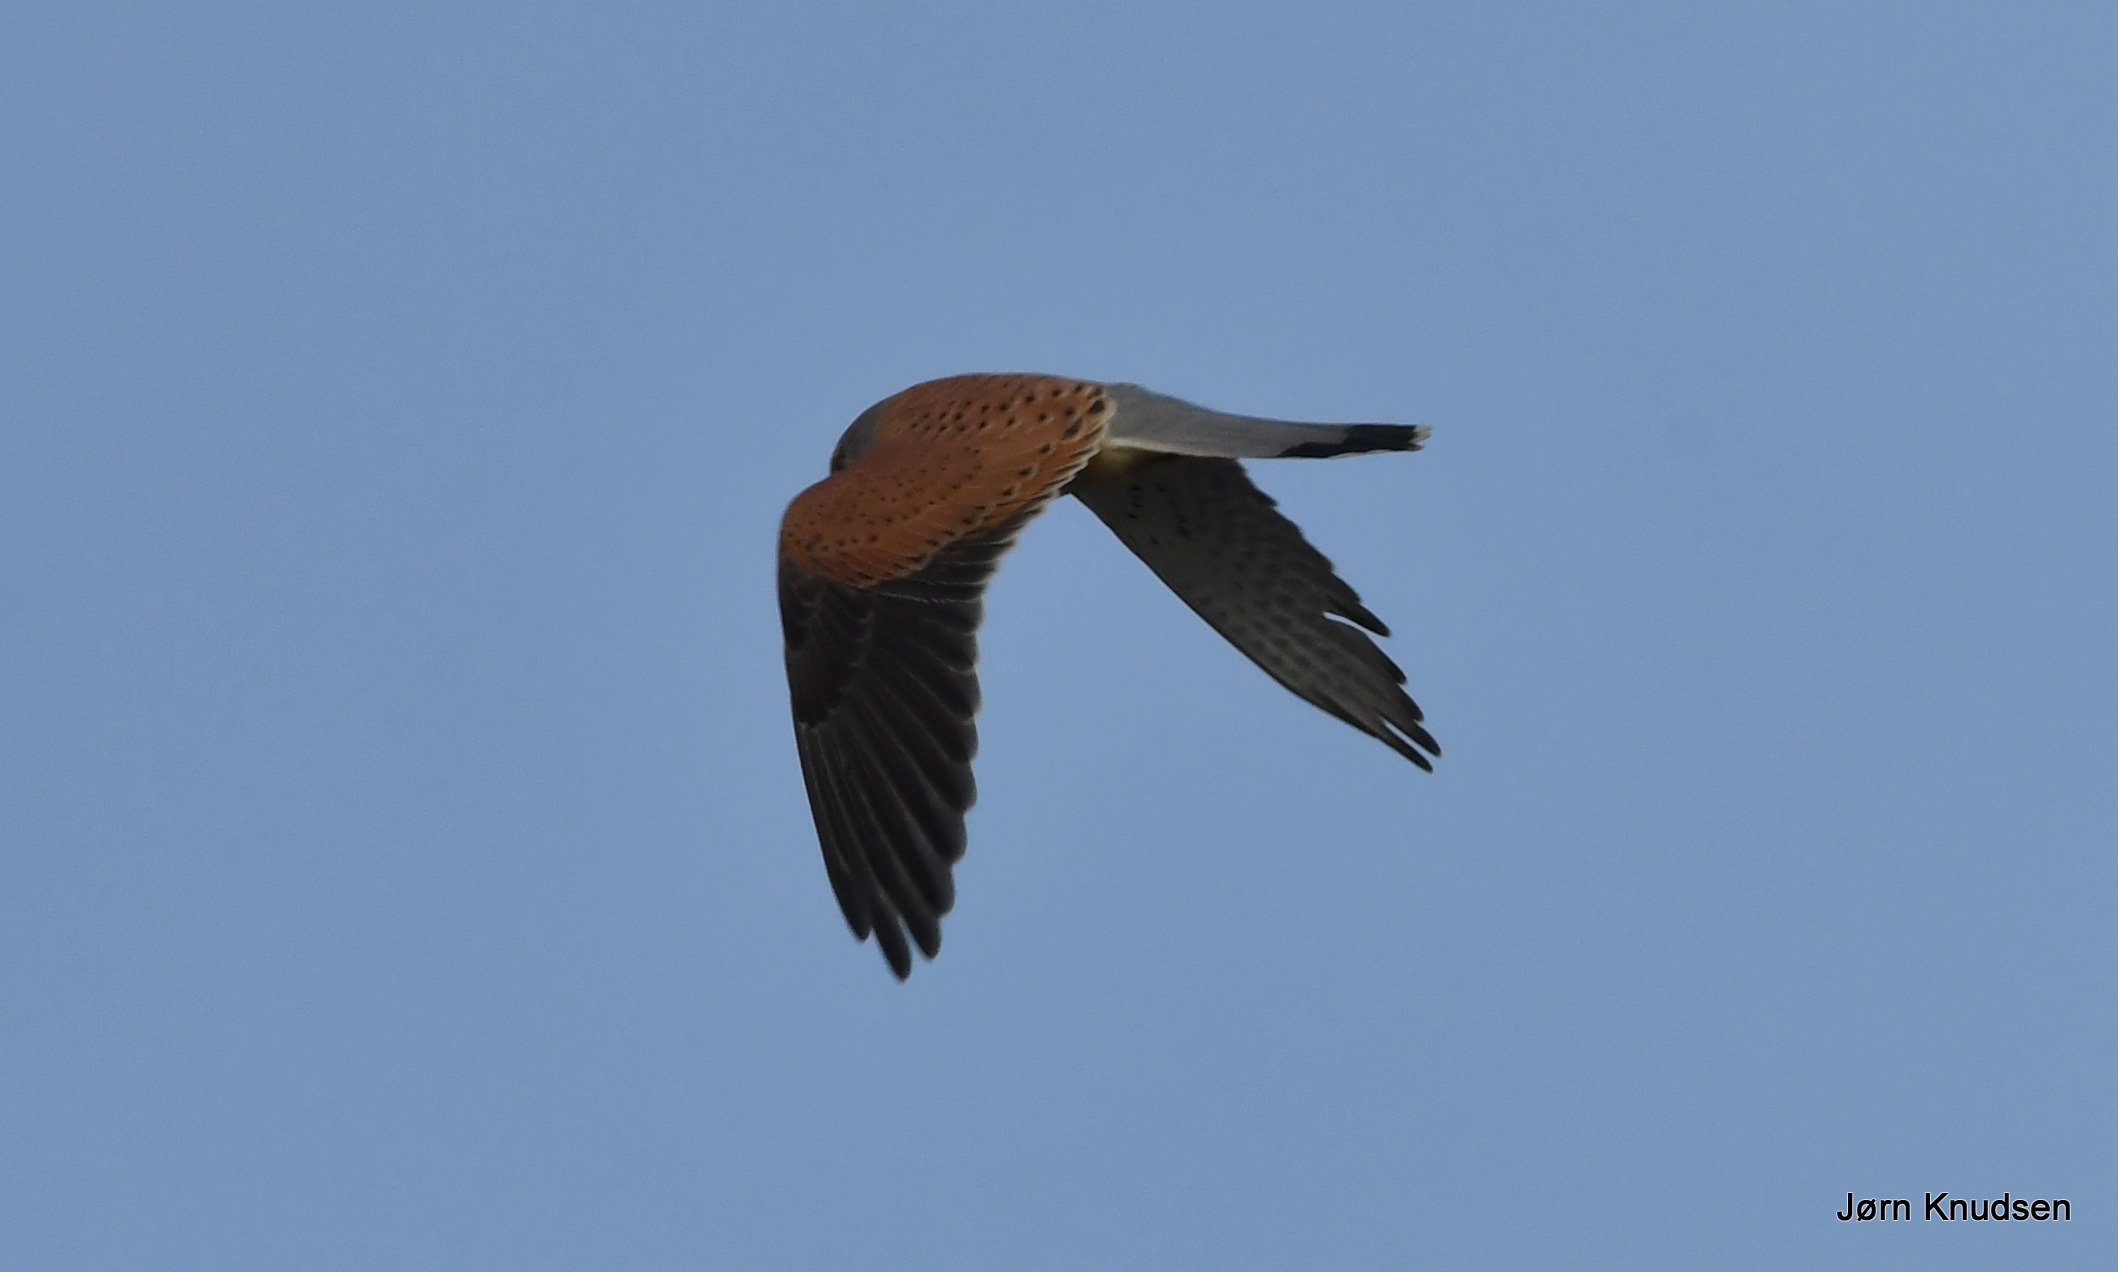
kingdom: Animalia
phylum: Chordata
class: Aves
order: Falconiformes
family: Falconidae
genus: Falco
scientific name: Falco tinnunculus
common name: Tårnfalk
